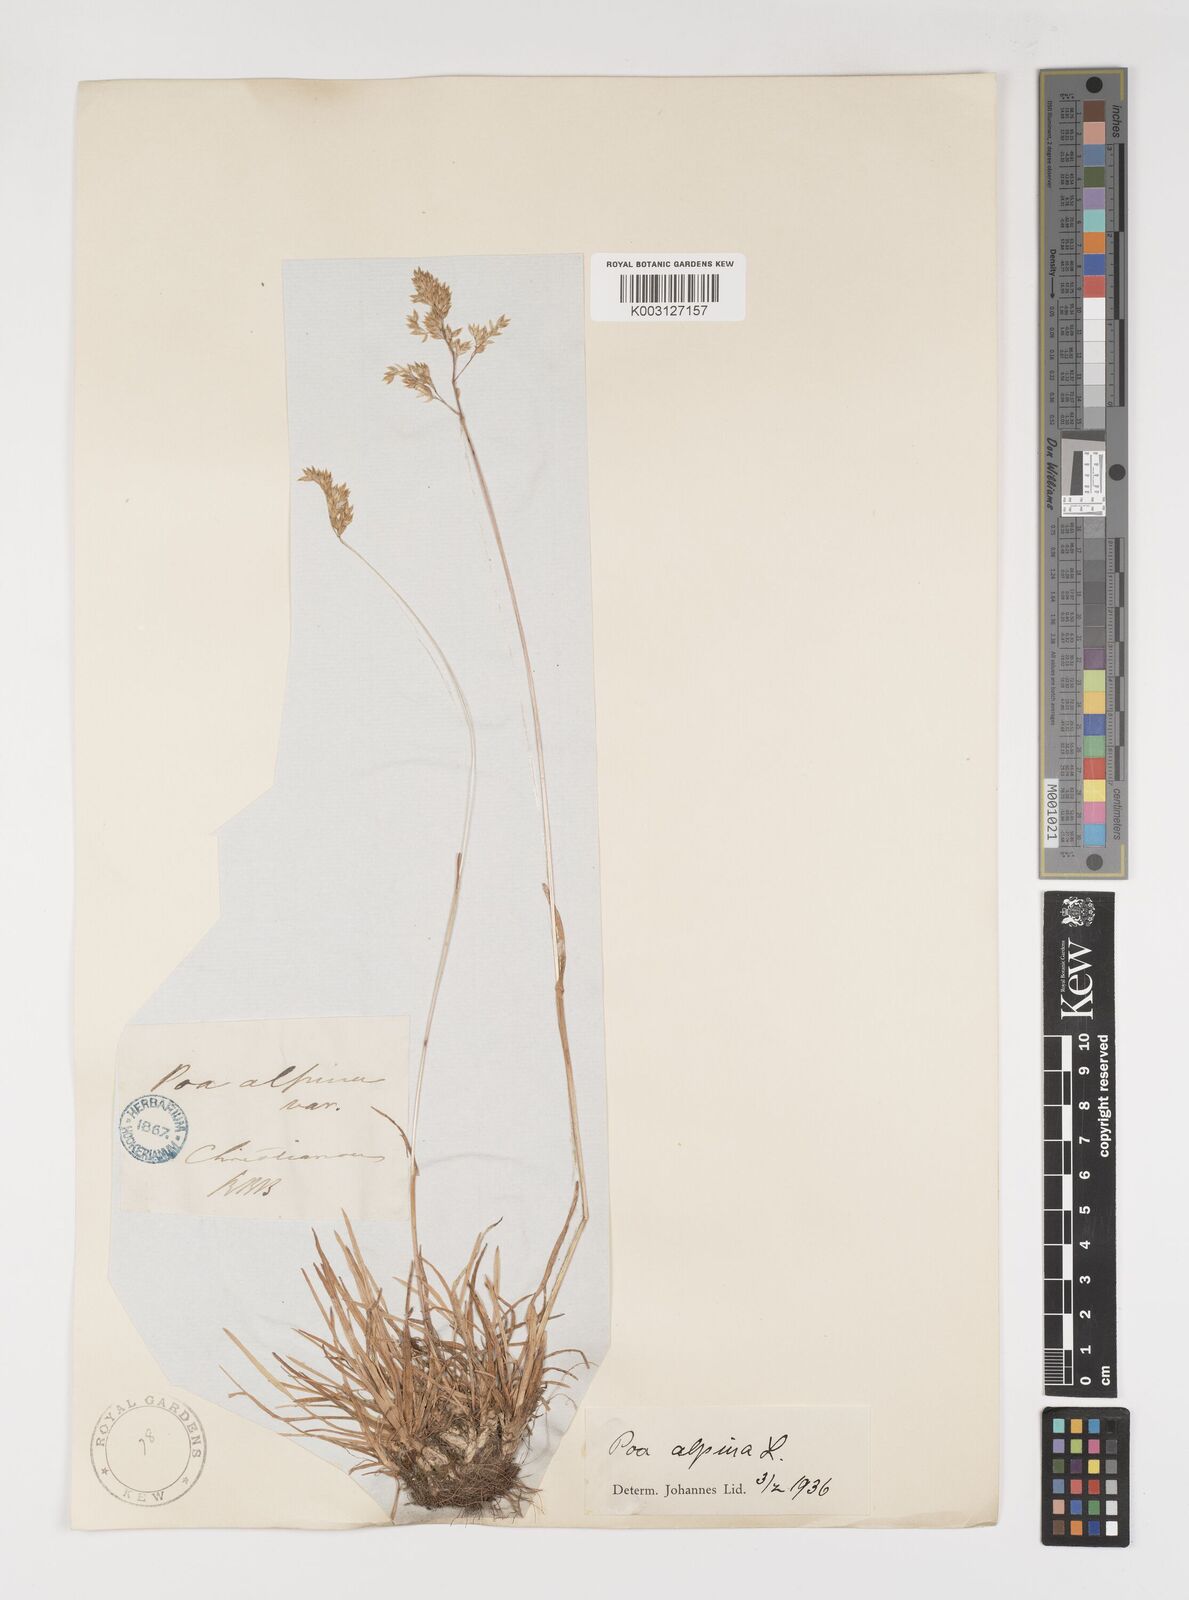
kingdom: Plantae
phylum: Tracheophyta
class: Liliopsida
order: Poales
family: Poaceae
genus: Poa
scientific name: Poa alpina
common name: Alpine bluegrass
